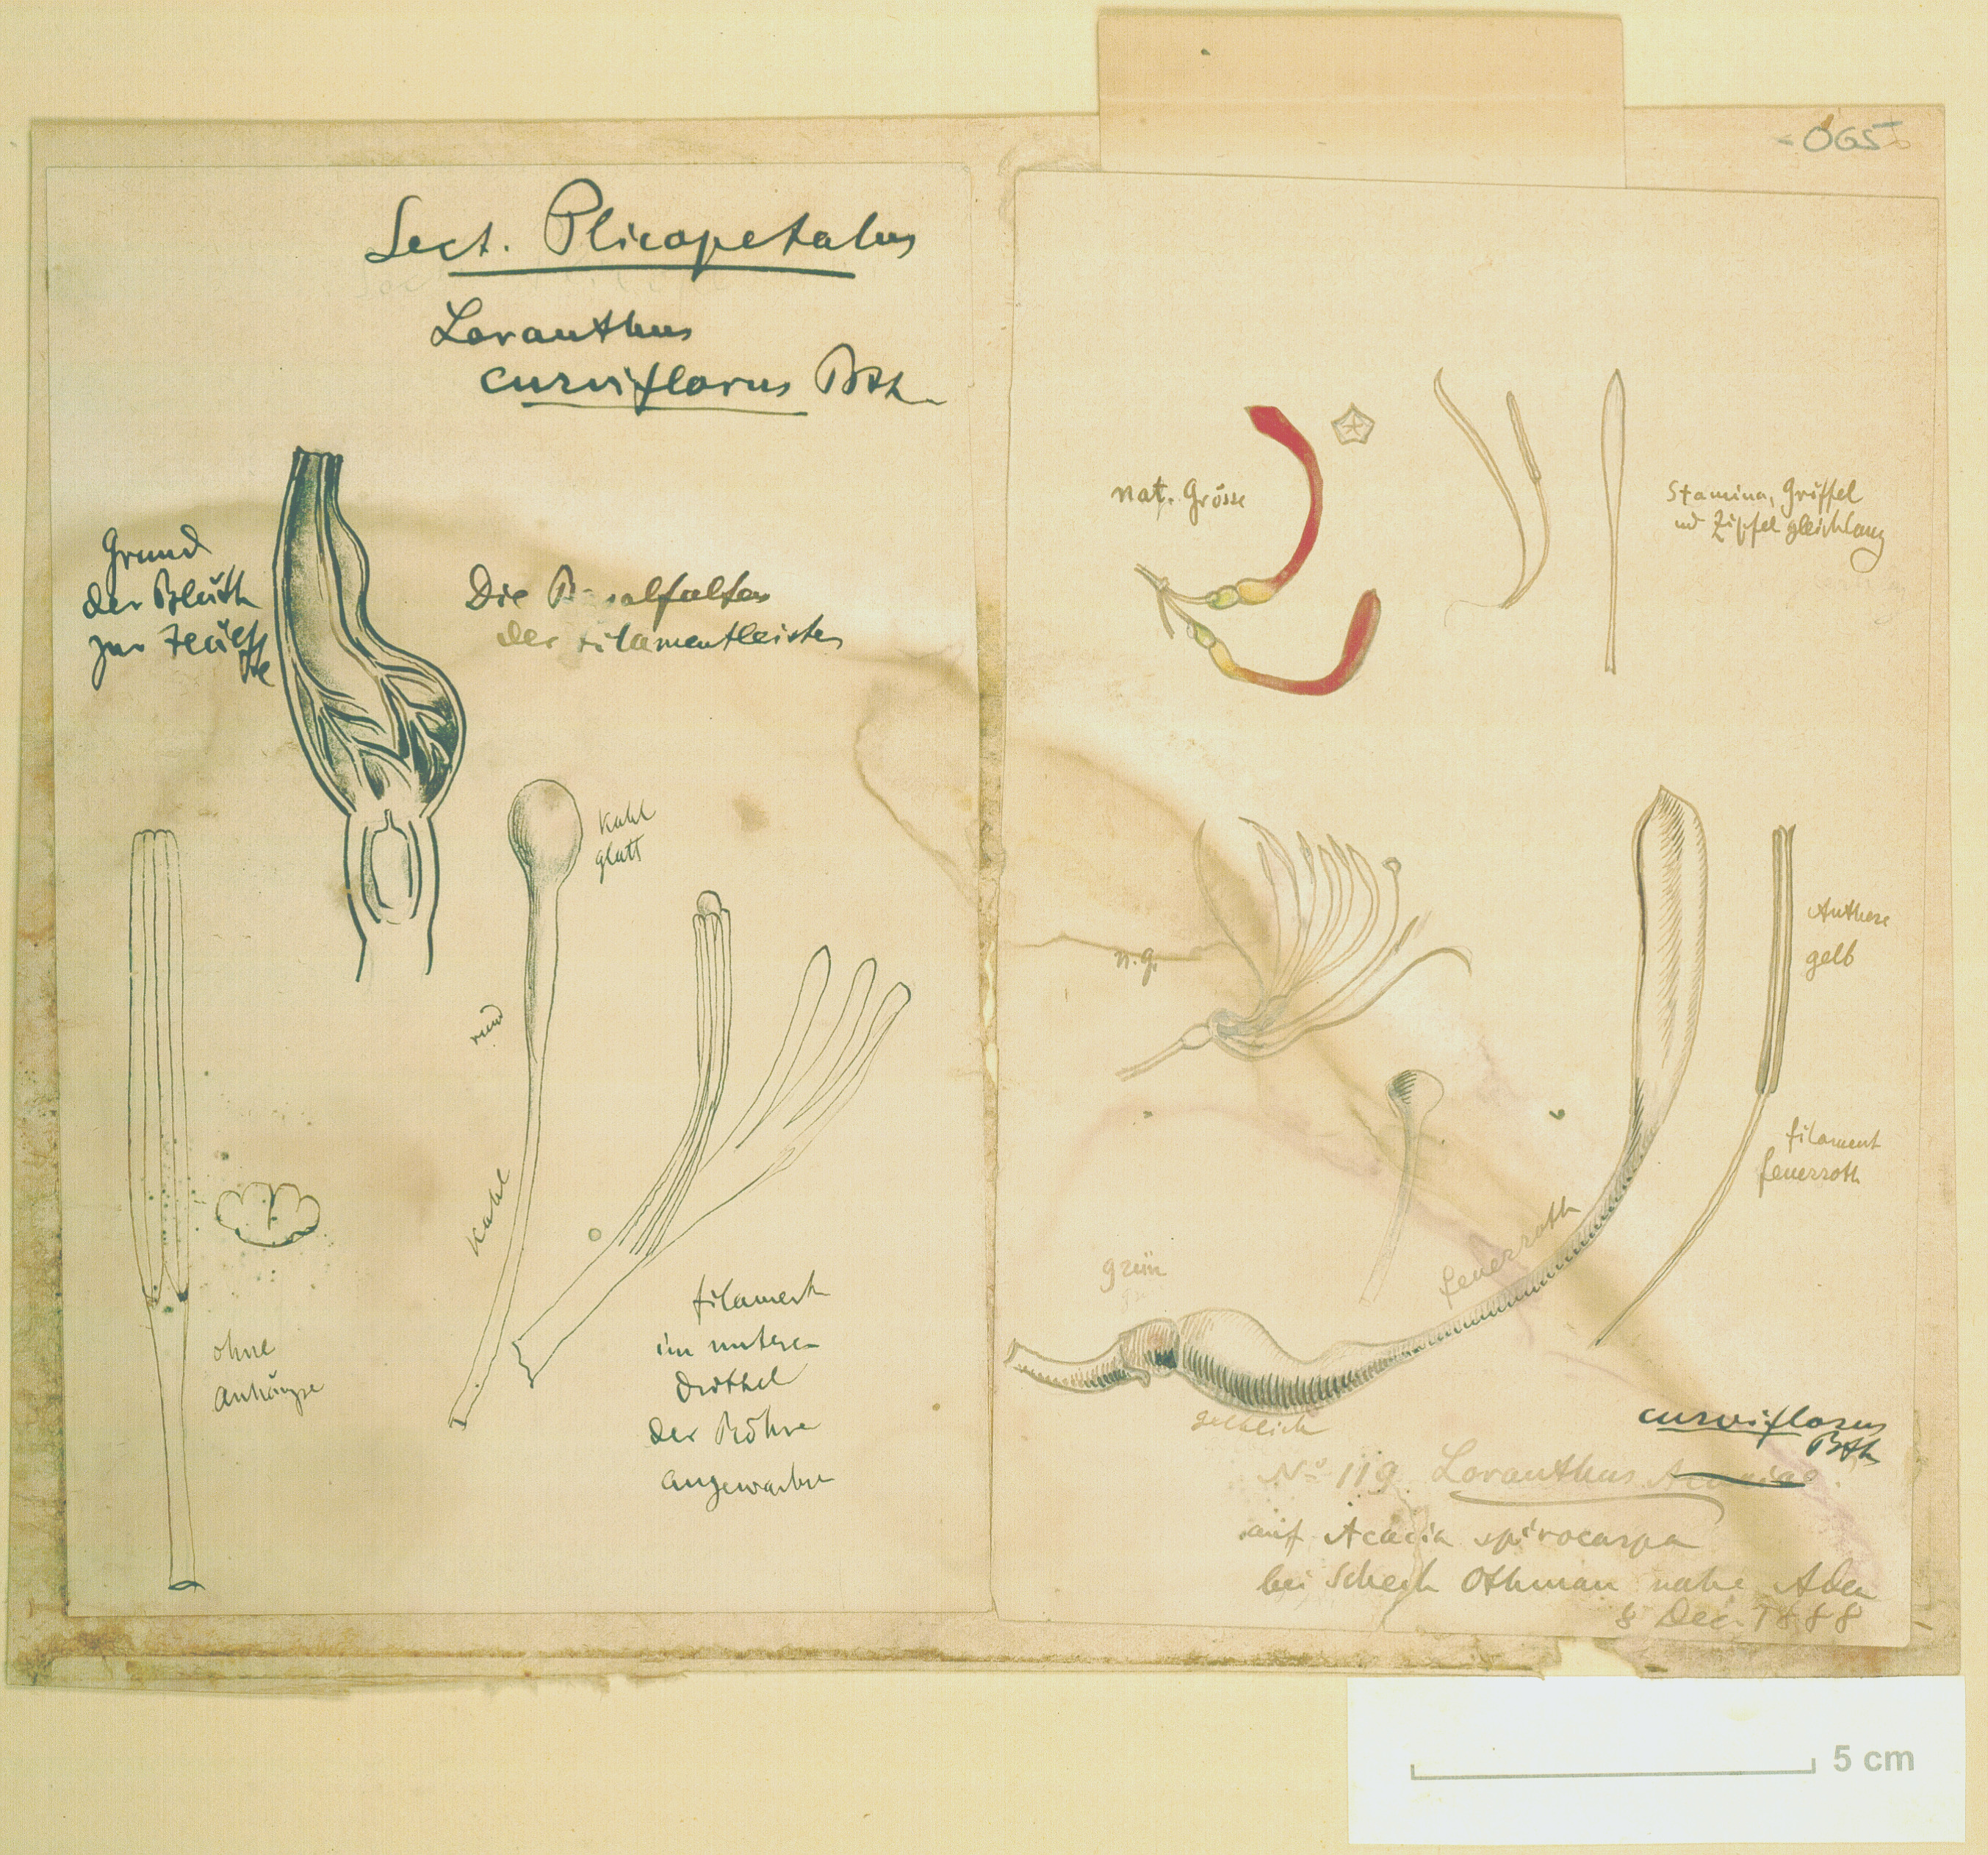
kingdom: Plantae
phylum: Tracheophyta
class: Magnoliopsida
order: Santalales
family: Loranthaceae
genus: Plicosepalus
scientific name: Plicosepalus curviflorus
